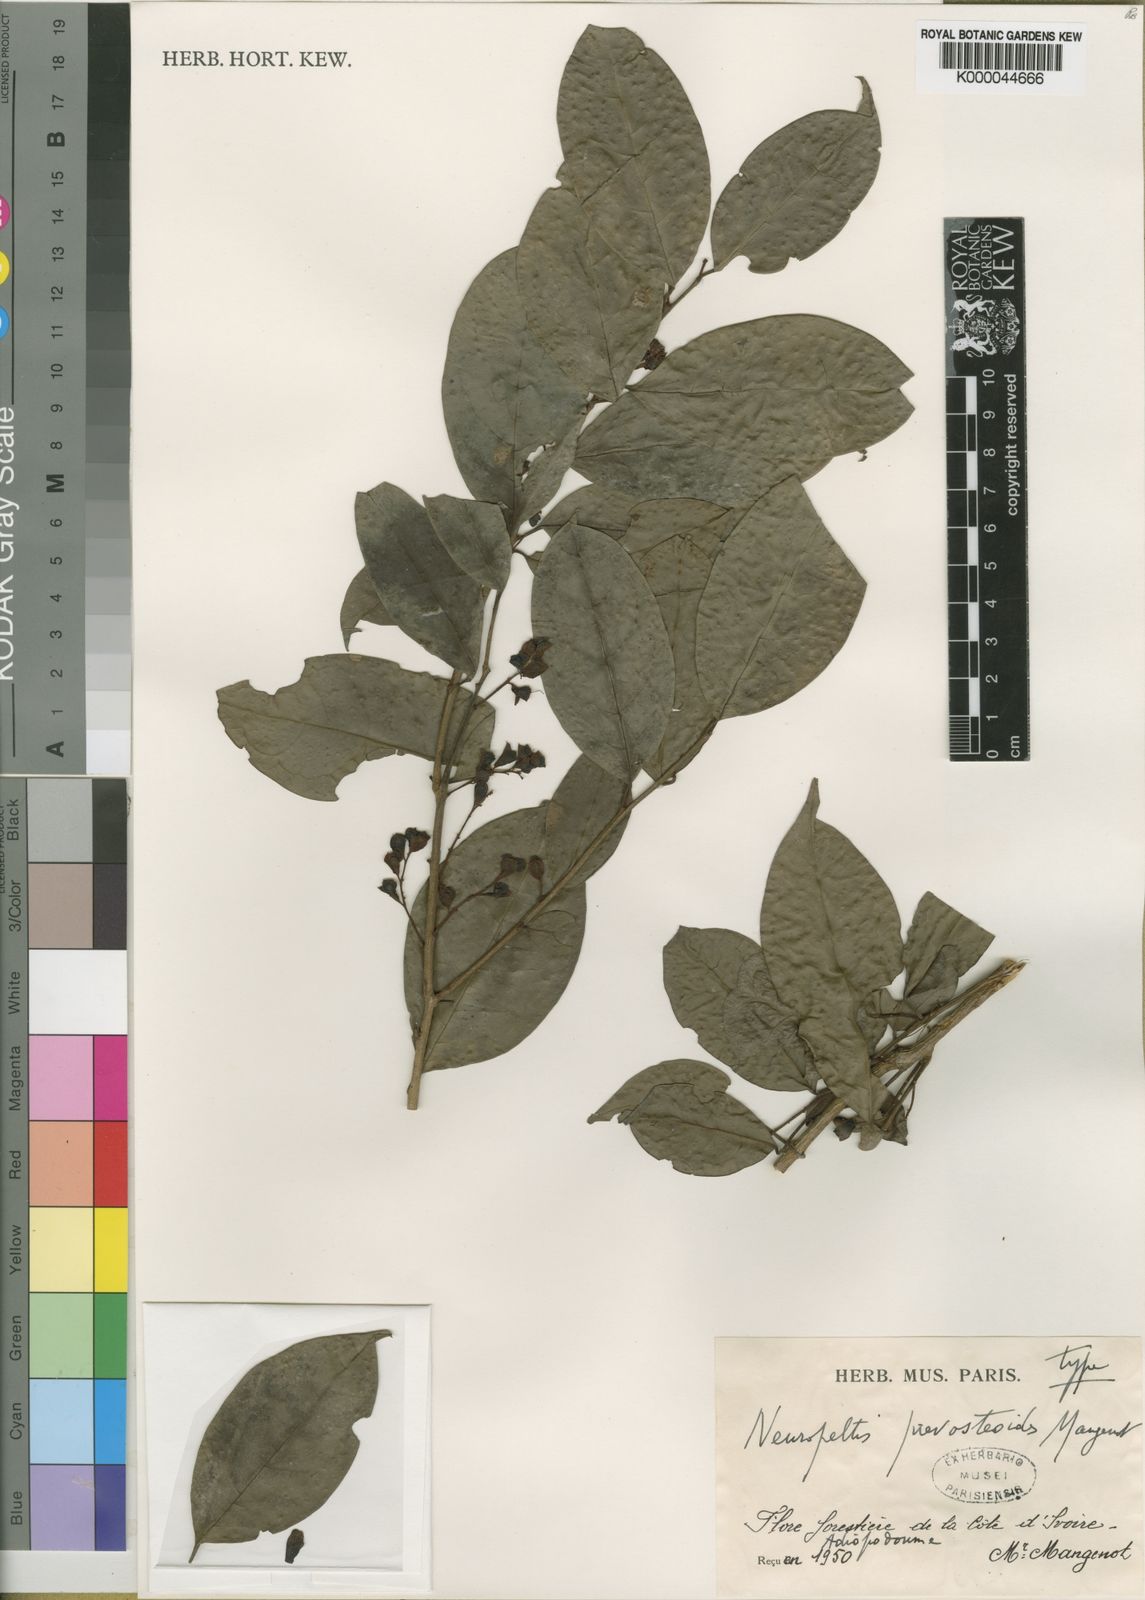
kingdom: Plantae
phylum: Tracheophyta
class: Magnoliopsida
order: Solanales
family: Convolvulaceae
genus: Neuropeltis
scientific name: Neuropeltis prevosteoides
